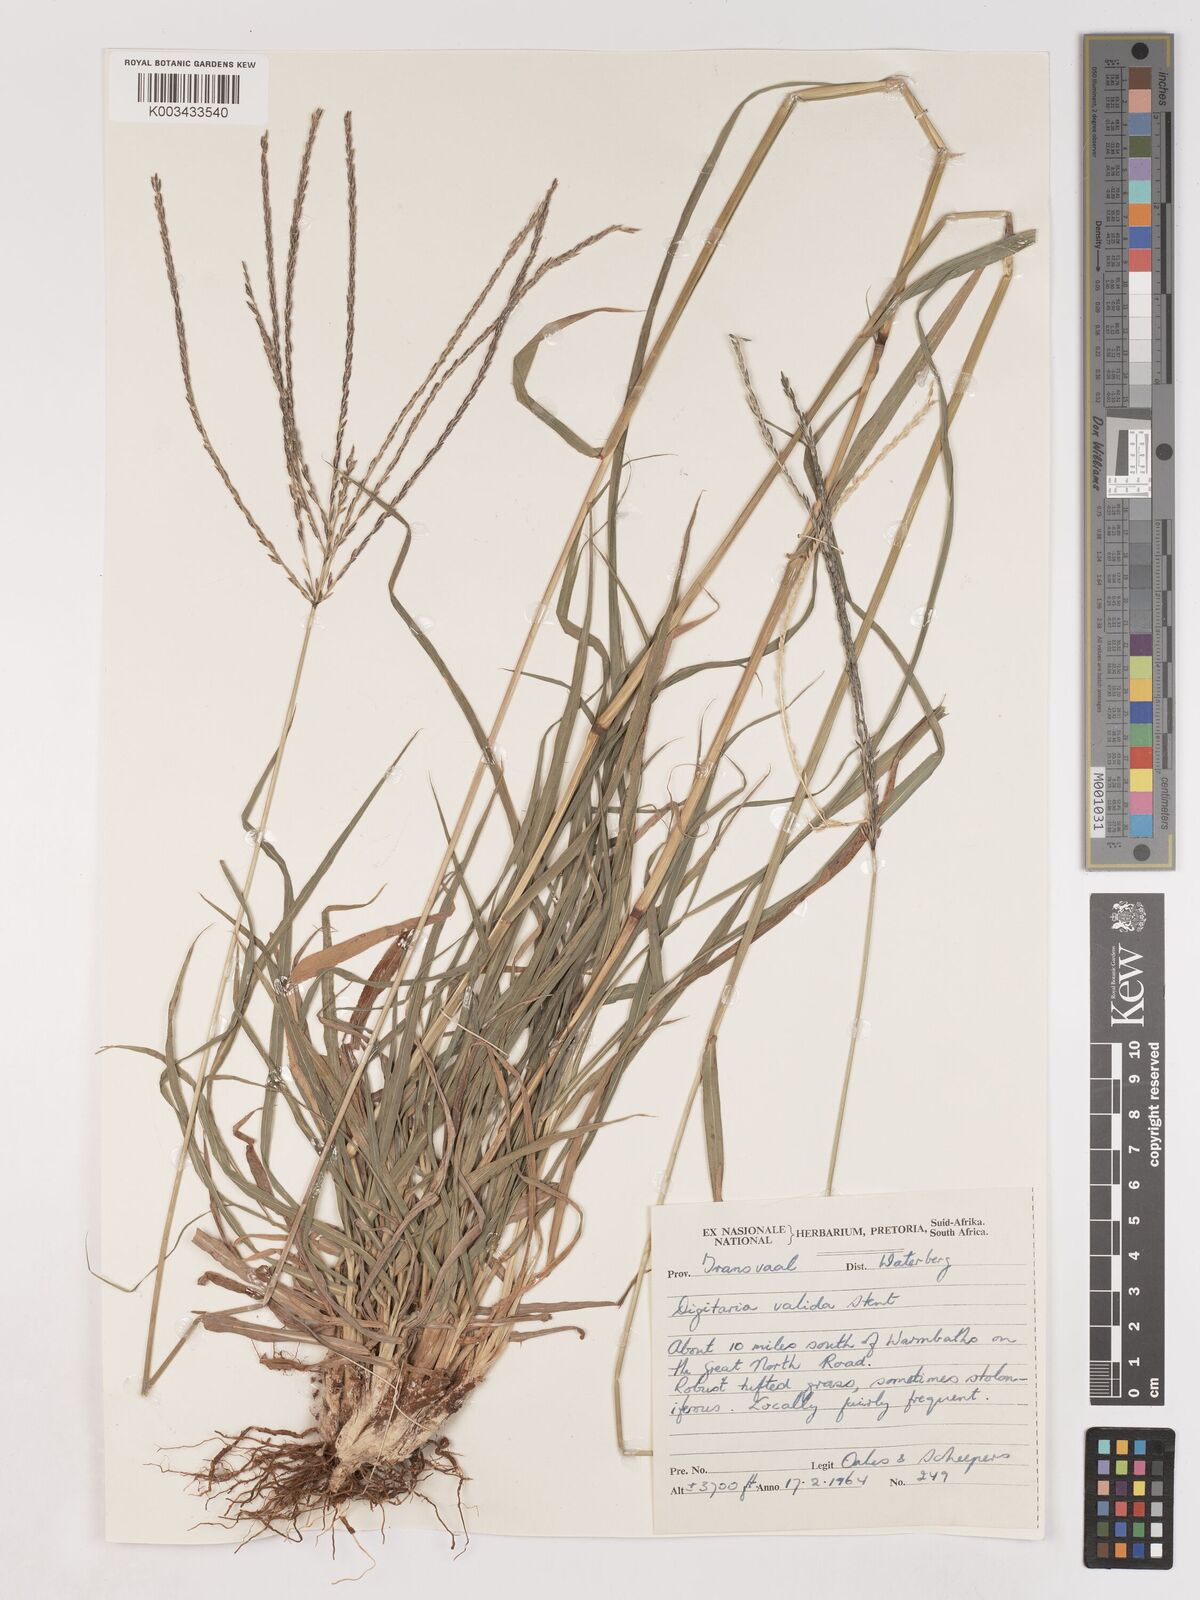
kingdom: Plantae
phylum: Tracheophyta
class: Liliopsida
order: Poales
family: Poaceae
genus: Digitaria
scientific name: Digitaria eriantha
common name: Digitgrass
